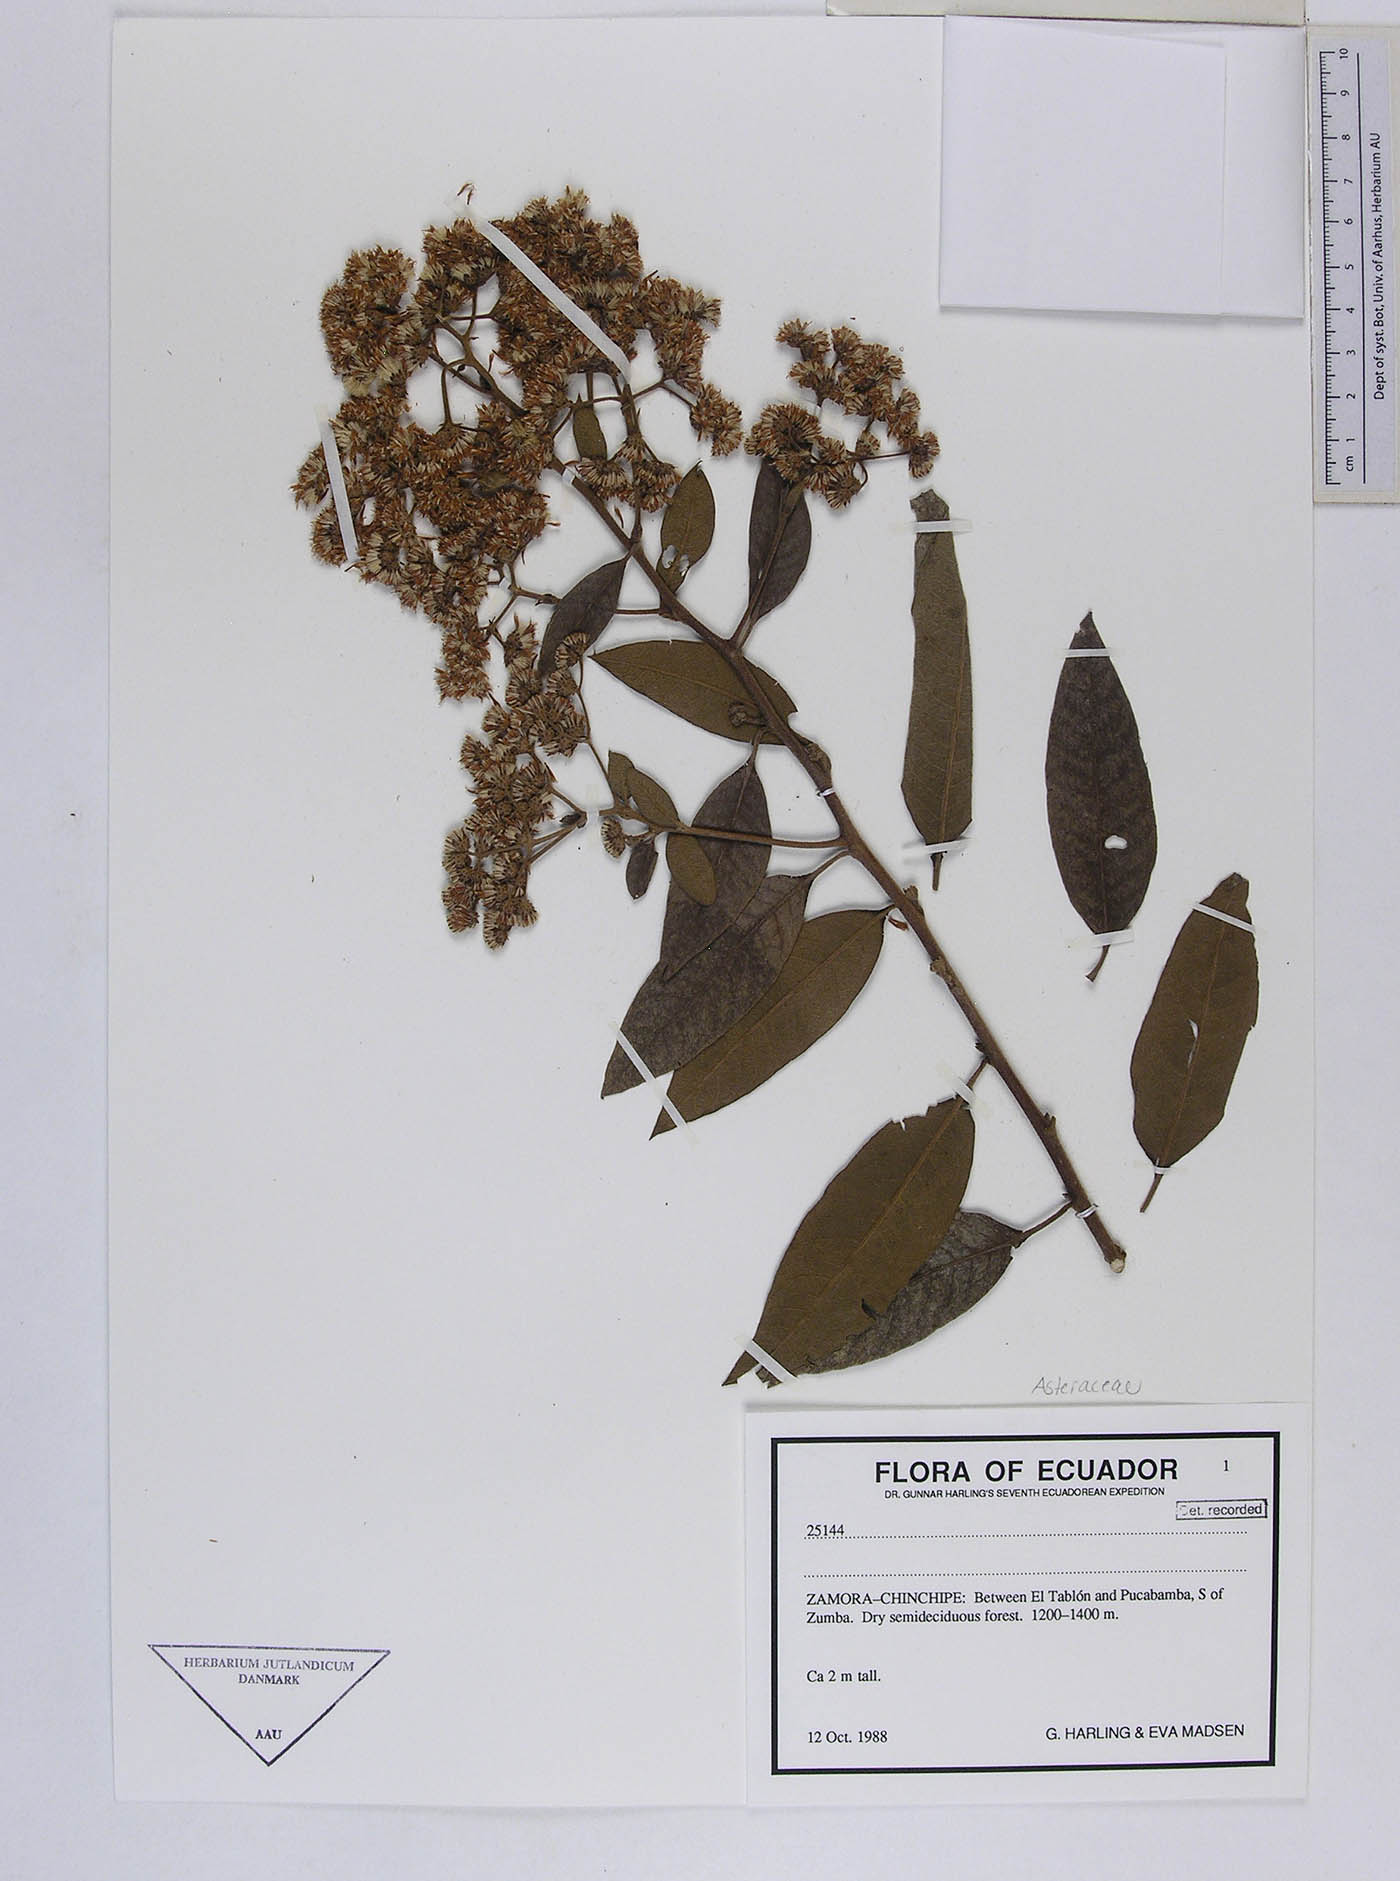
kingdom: Plantae
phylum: Tracheophyta
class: Magnoliopsida
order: Asterales
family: Asteraceae
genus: Vernonanthura
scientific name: Vernonanthura patens
